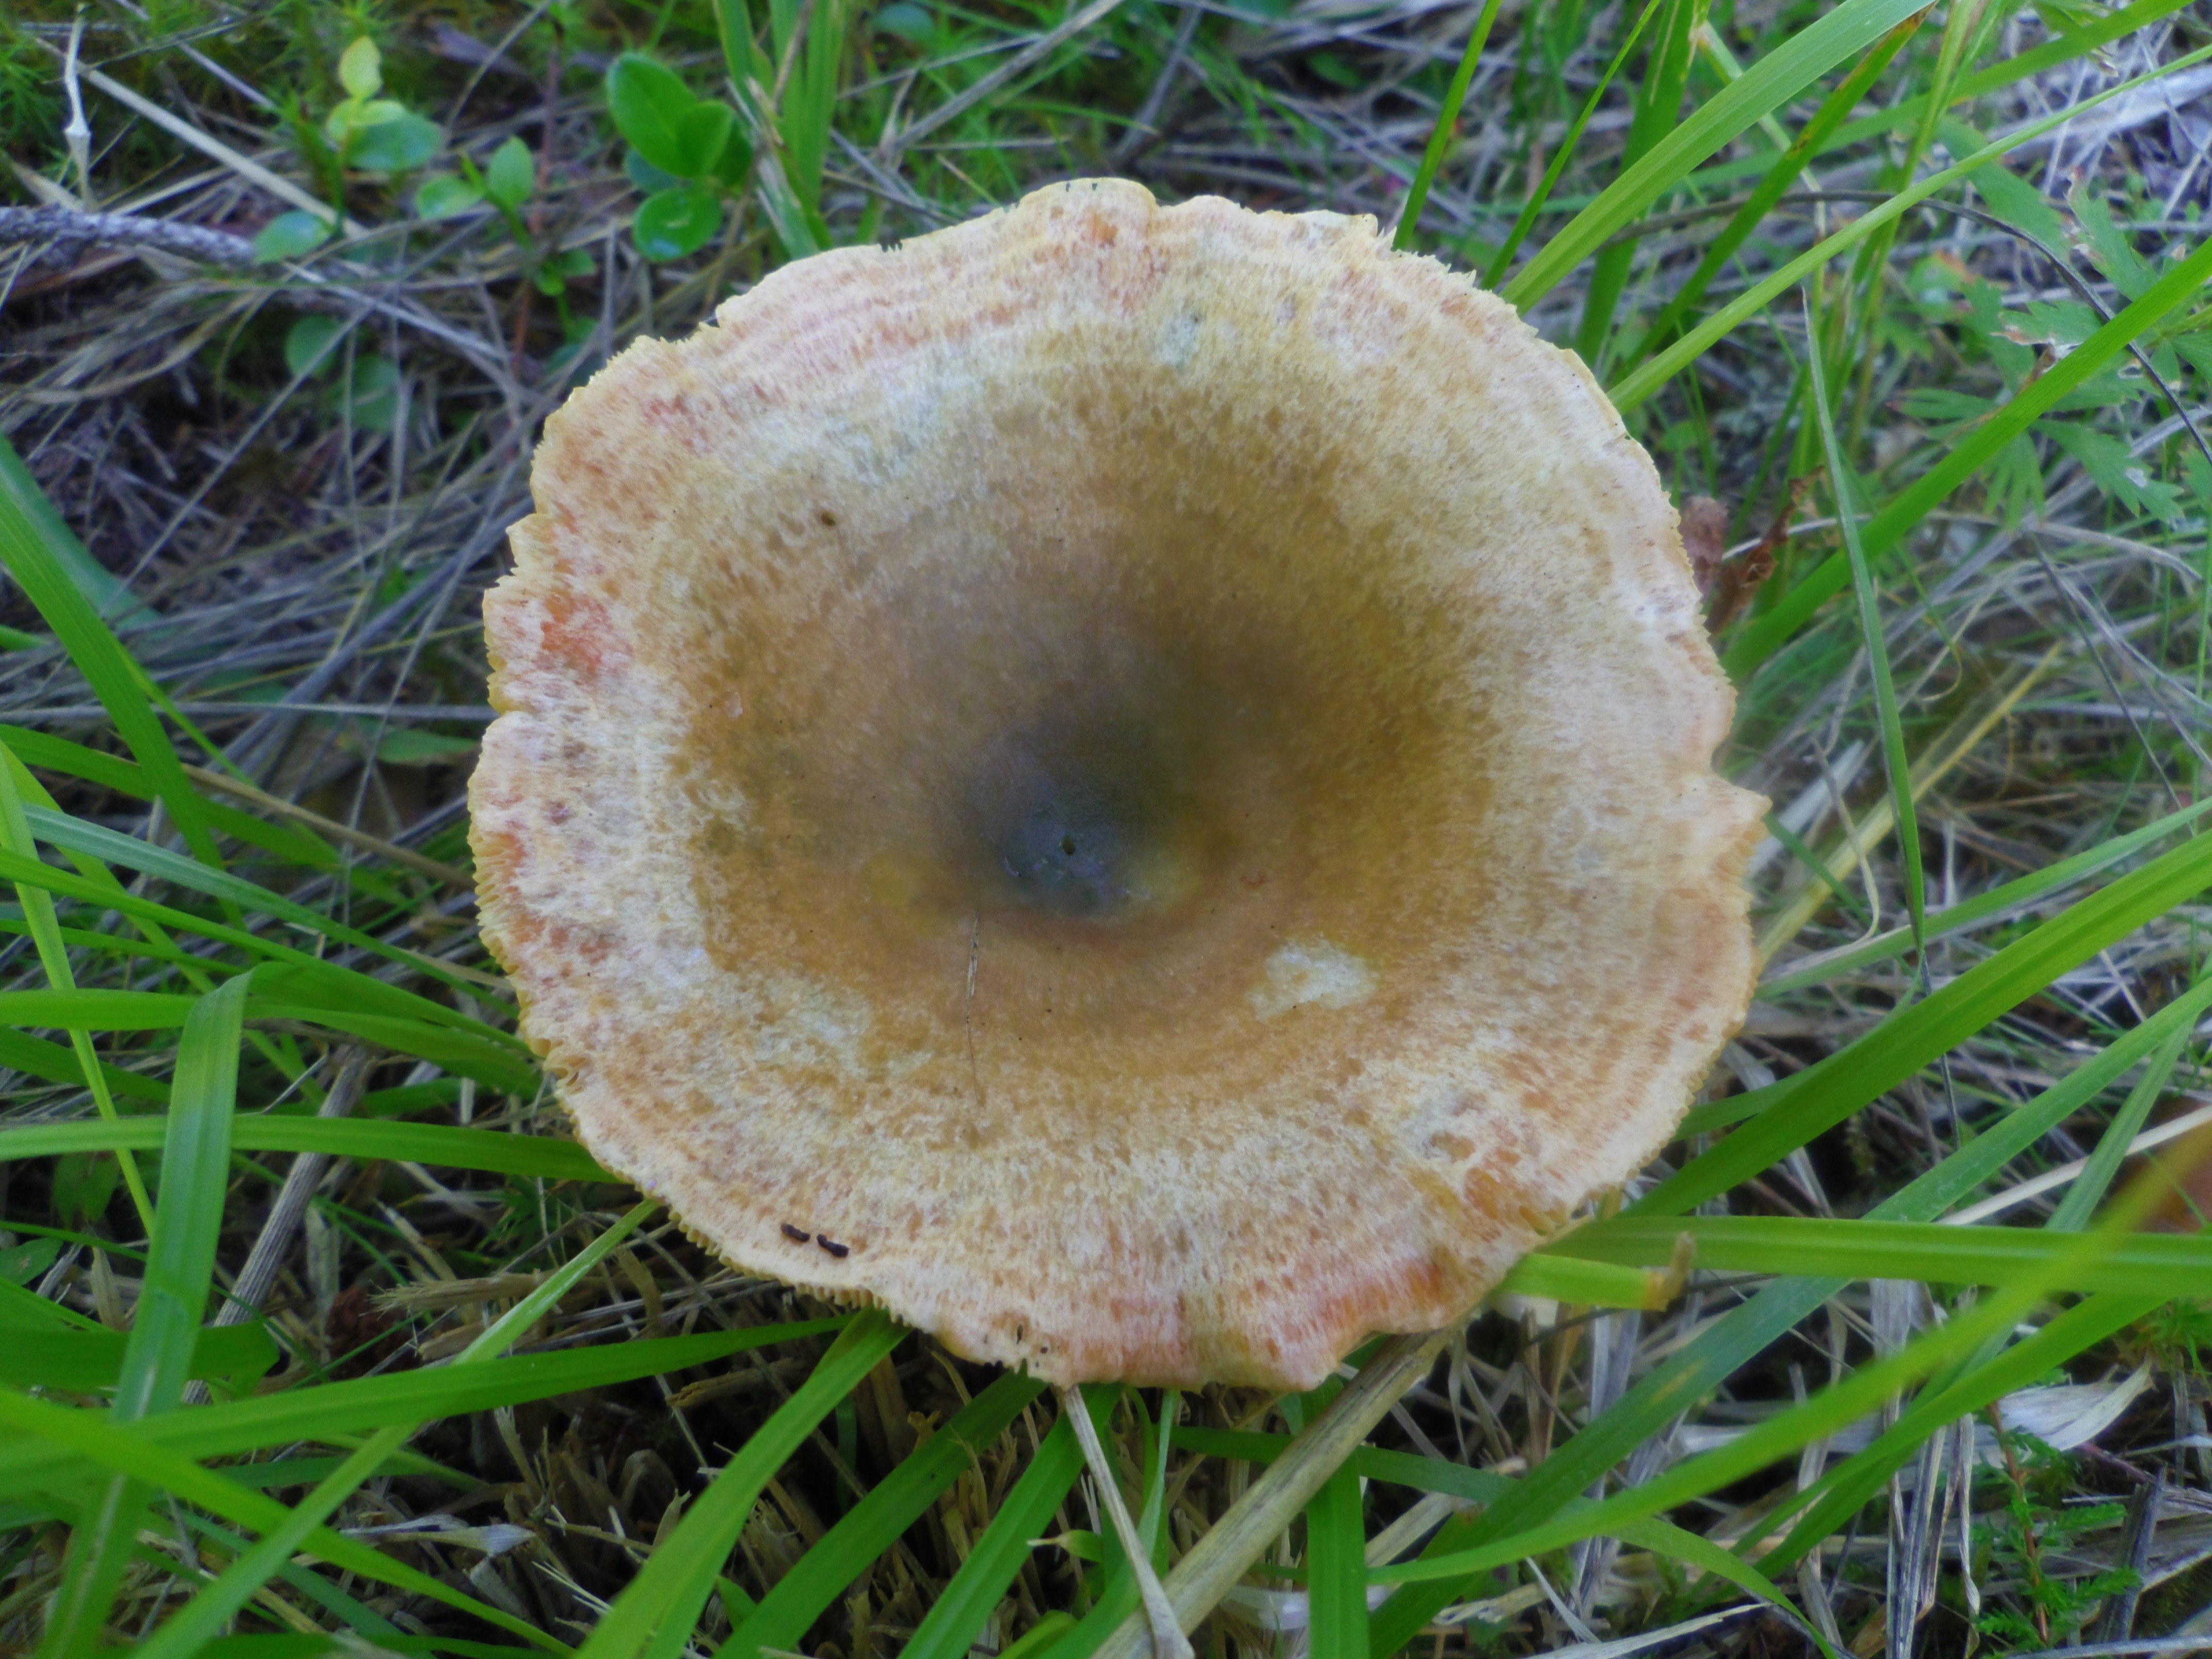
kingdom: Fungi
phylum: Basidiomycota
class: Agaricomycetes
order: Russulales
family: Russulaceae
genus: Lactarius
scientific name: Lactarius deterrimus
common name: False saffron milkcap
